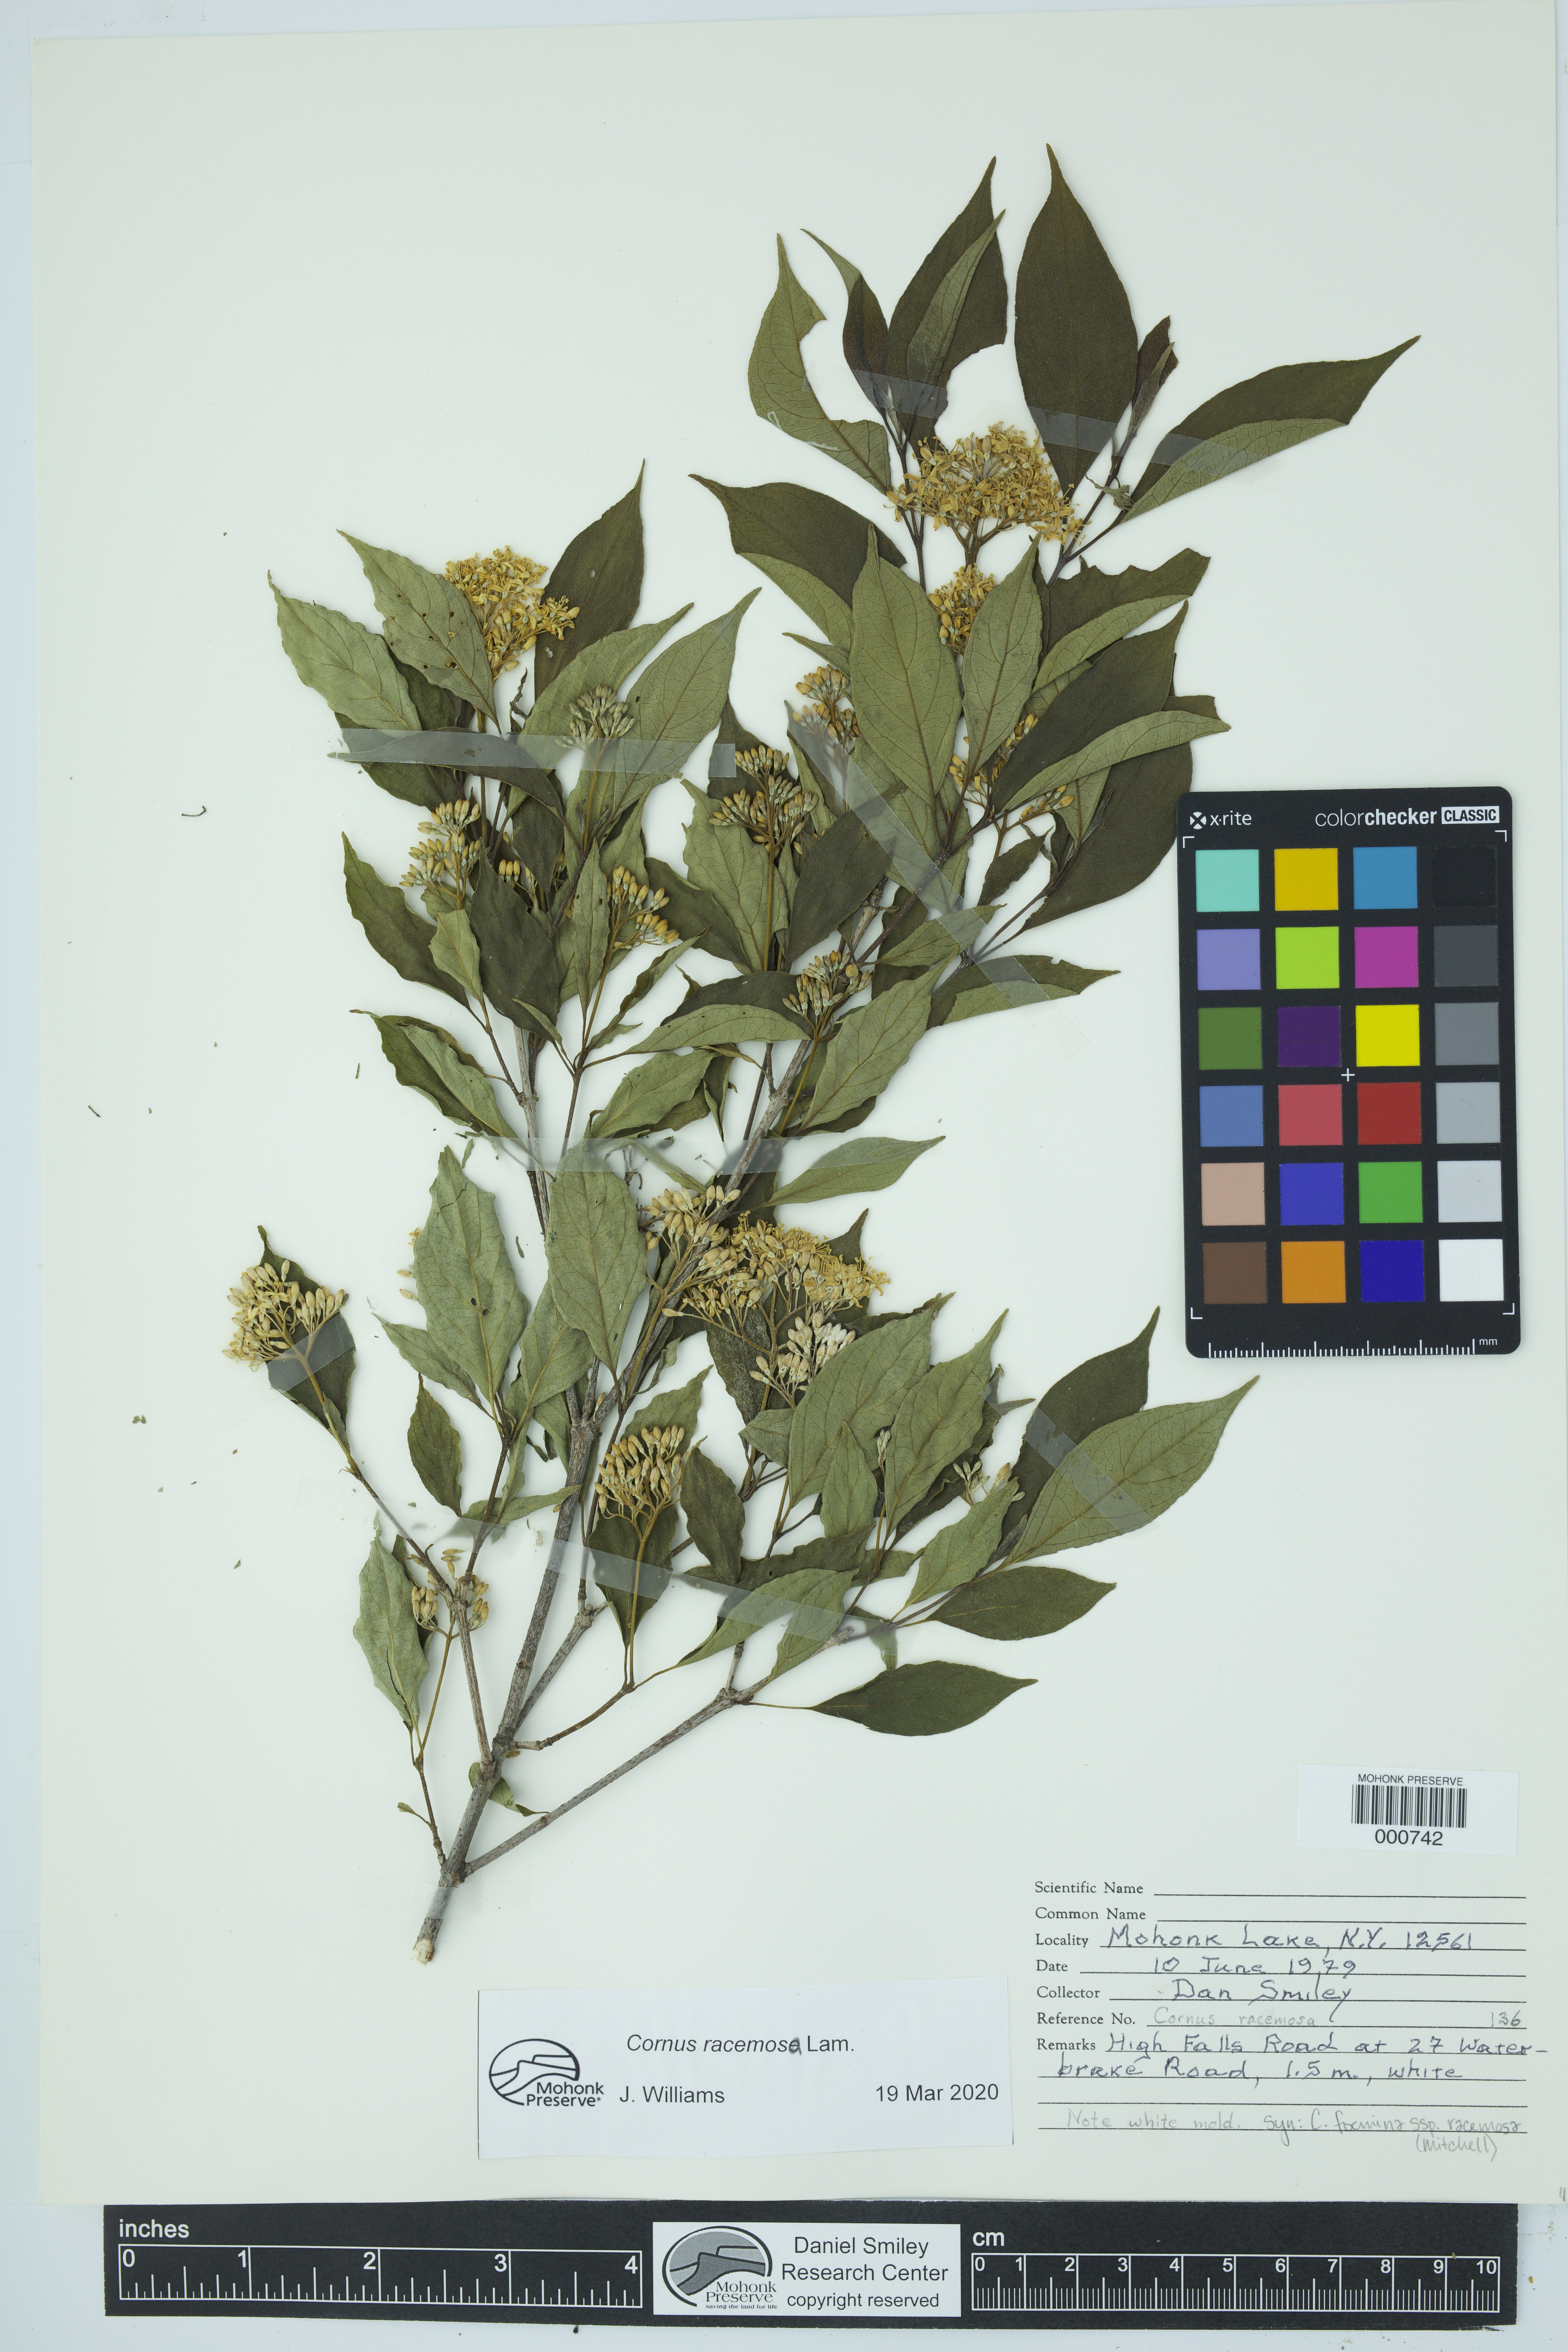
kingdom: Plantae
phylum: Tracheophyta
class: Magnoliopsida
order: Cornales
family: Cornaceae
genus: Cornus
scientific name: Cornus racemosa
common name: Panicled dogwood
